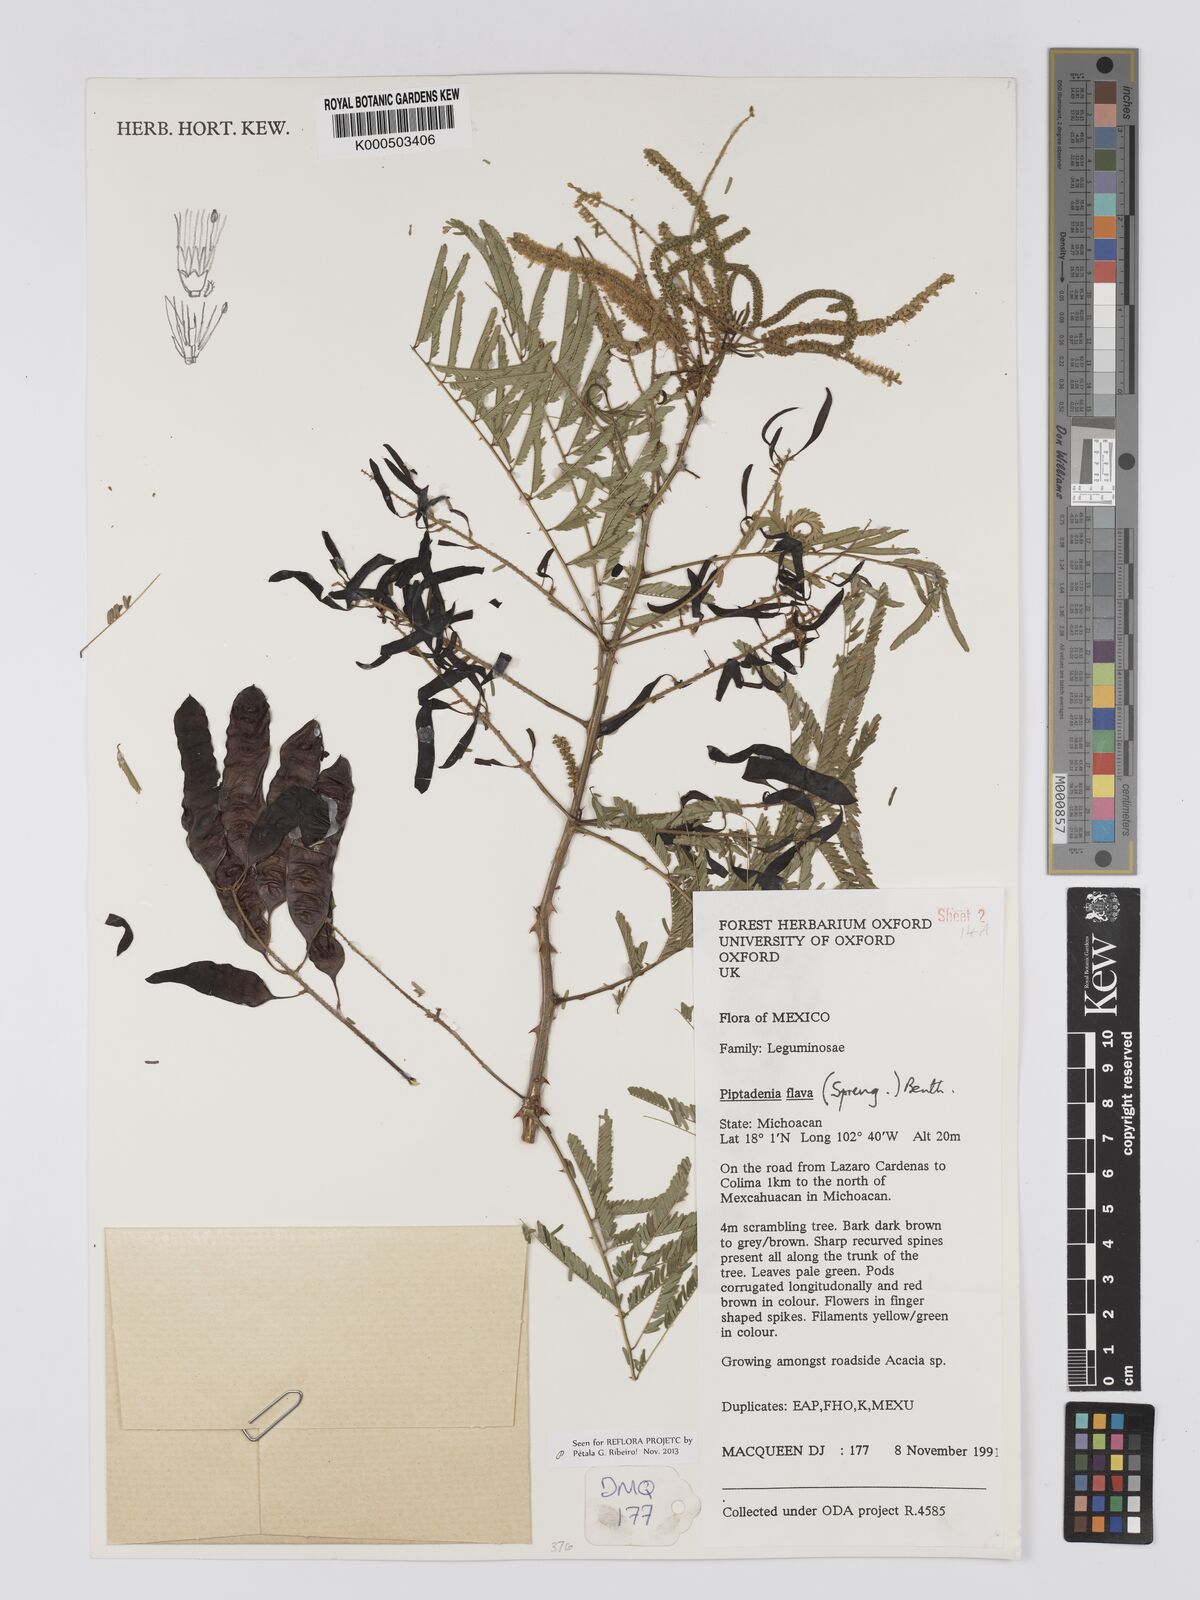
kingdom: Plantae
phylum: Tracheophyta
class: Magnoliopsida
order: Fabales
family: Fabaceae
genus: Piptadenia
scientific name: Piptadenia retusa
